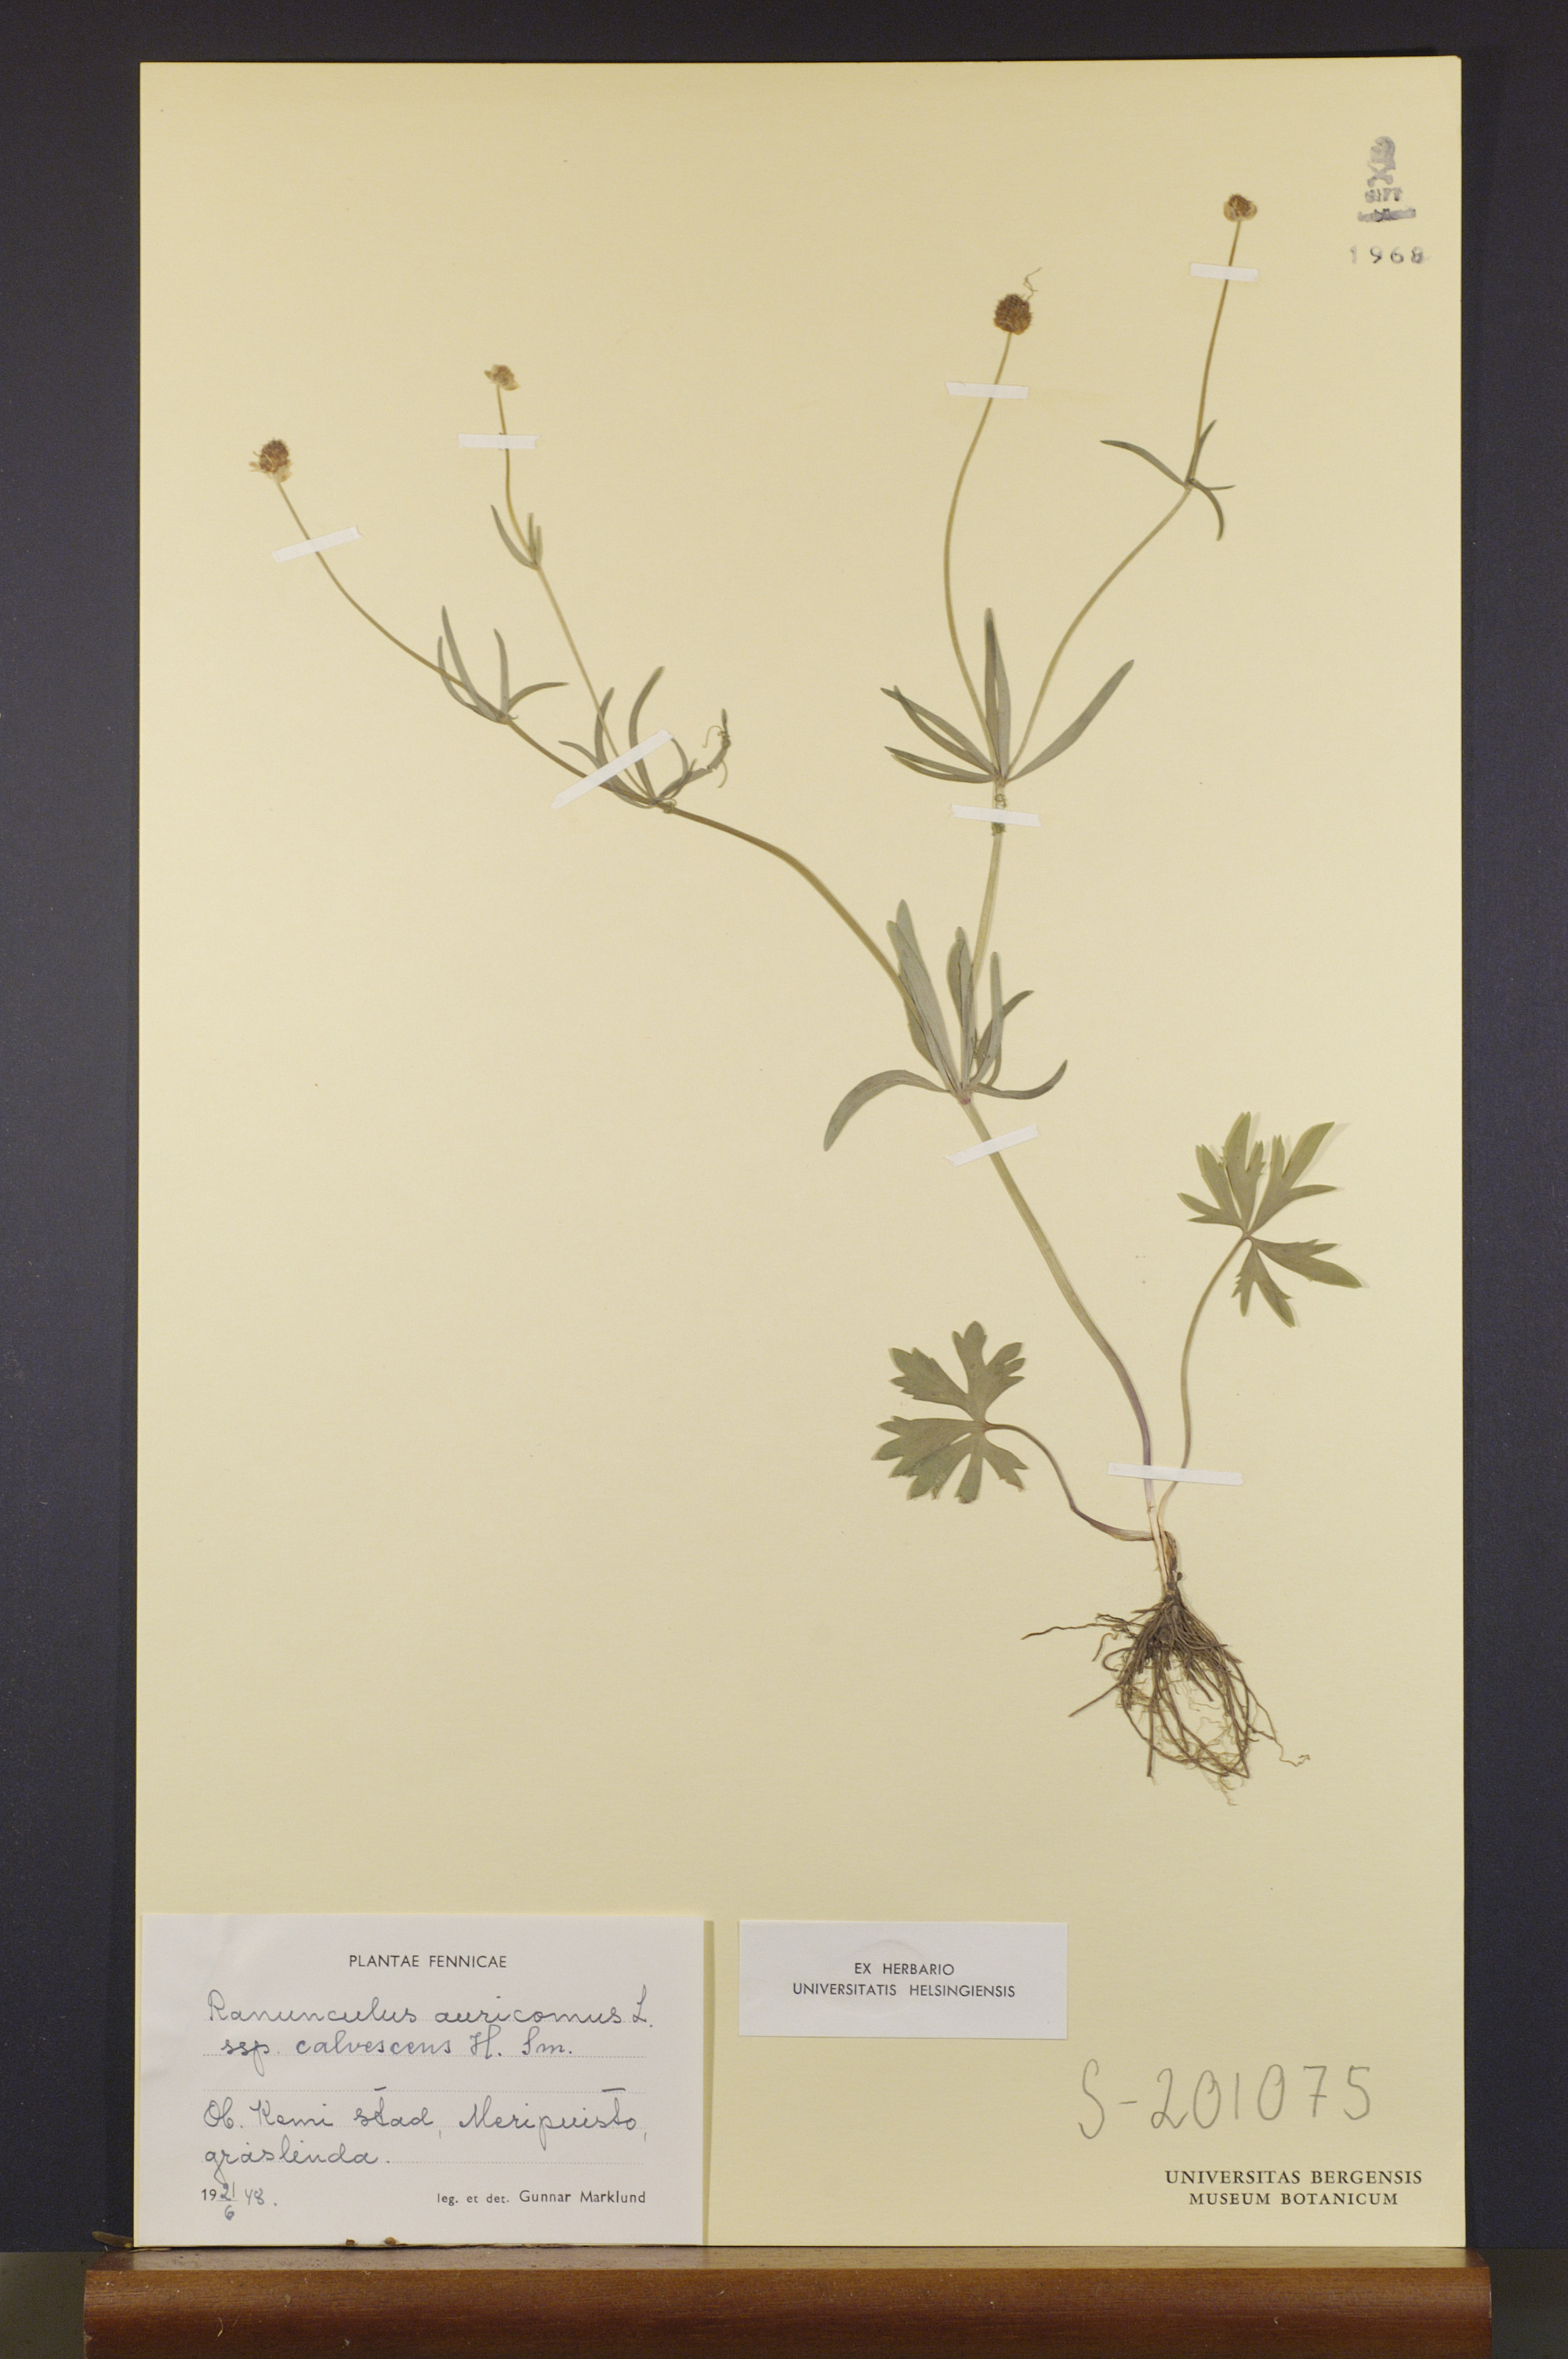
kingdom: Plantae
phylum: Tracheophyta
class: Magnoliopsida
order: Ranunculales
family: Ranunculaceae
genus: Ranunculus
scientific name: Ranunculus calvescens
